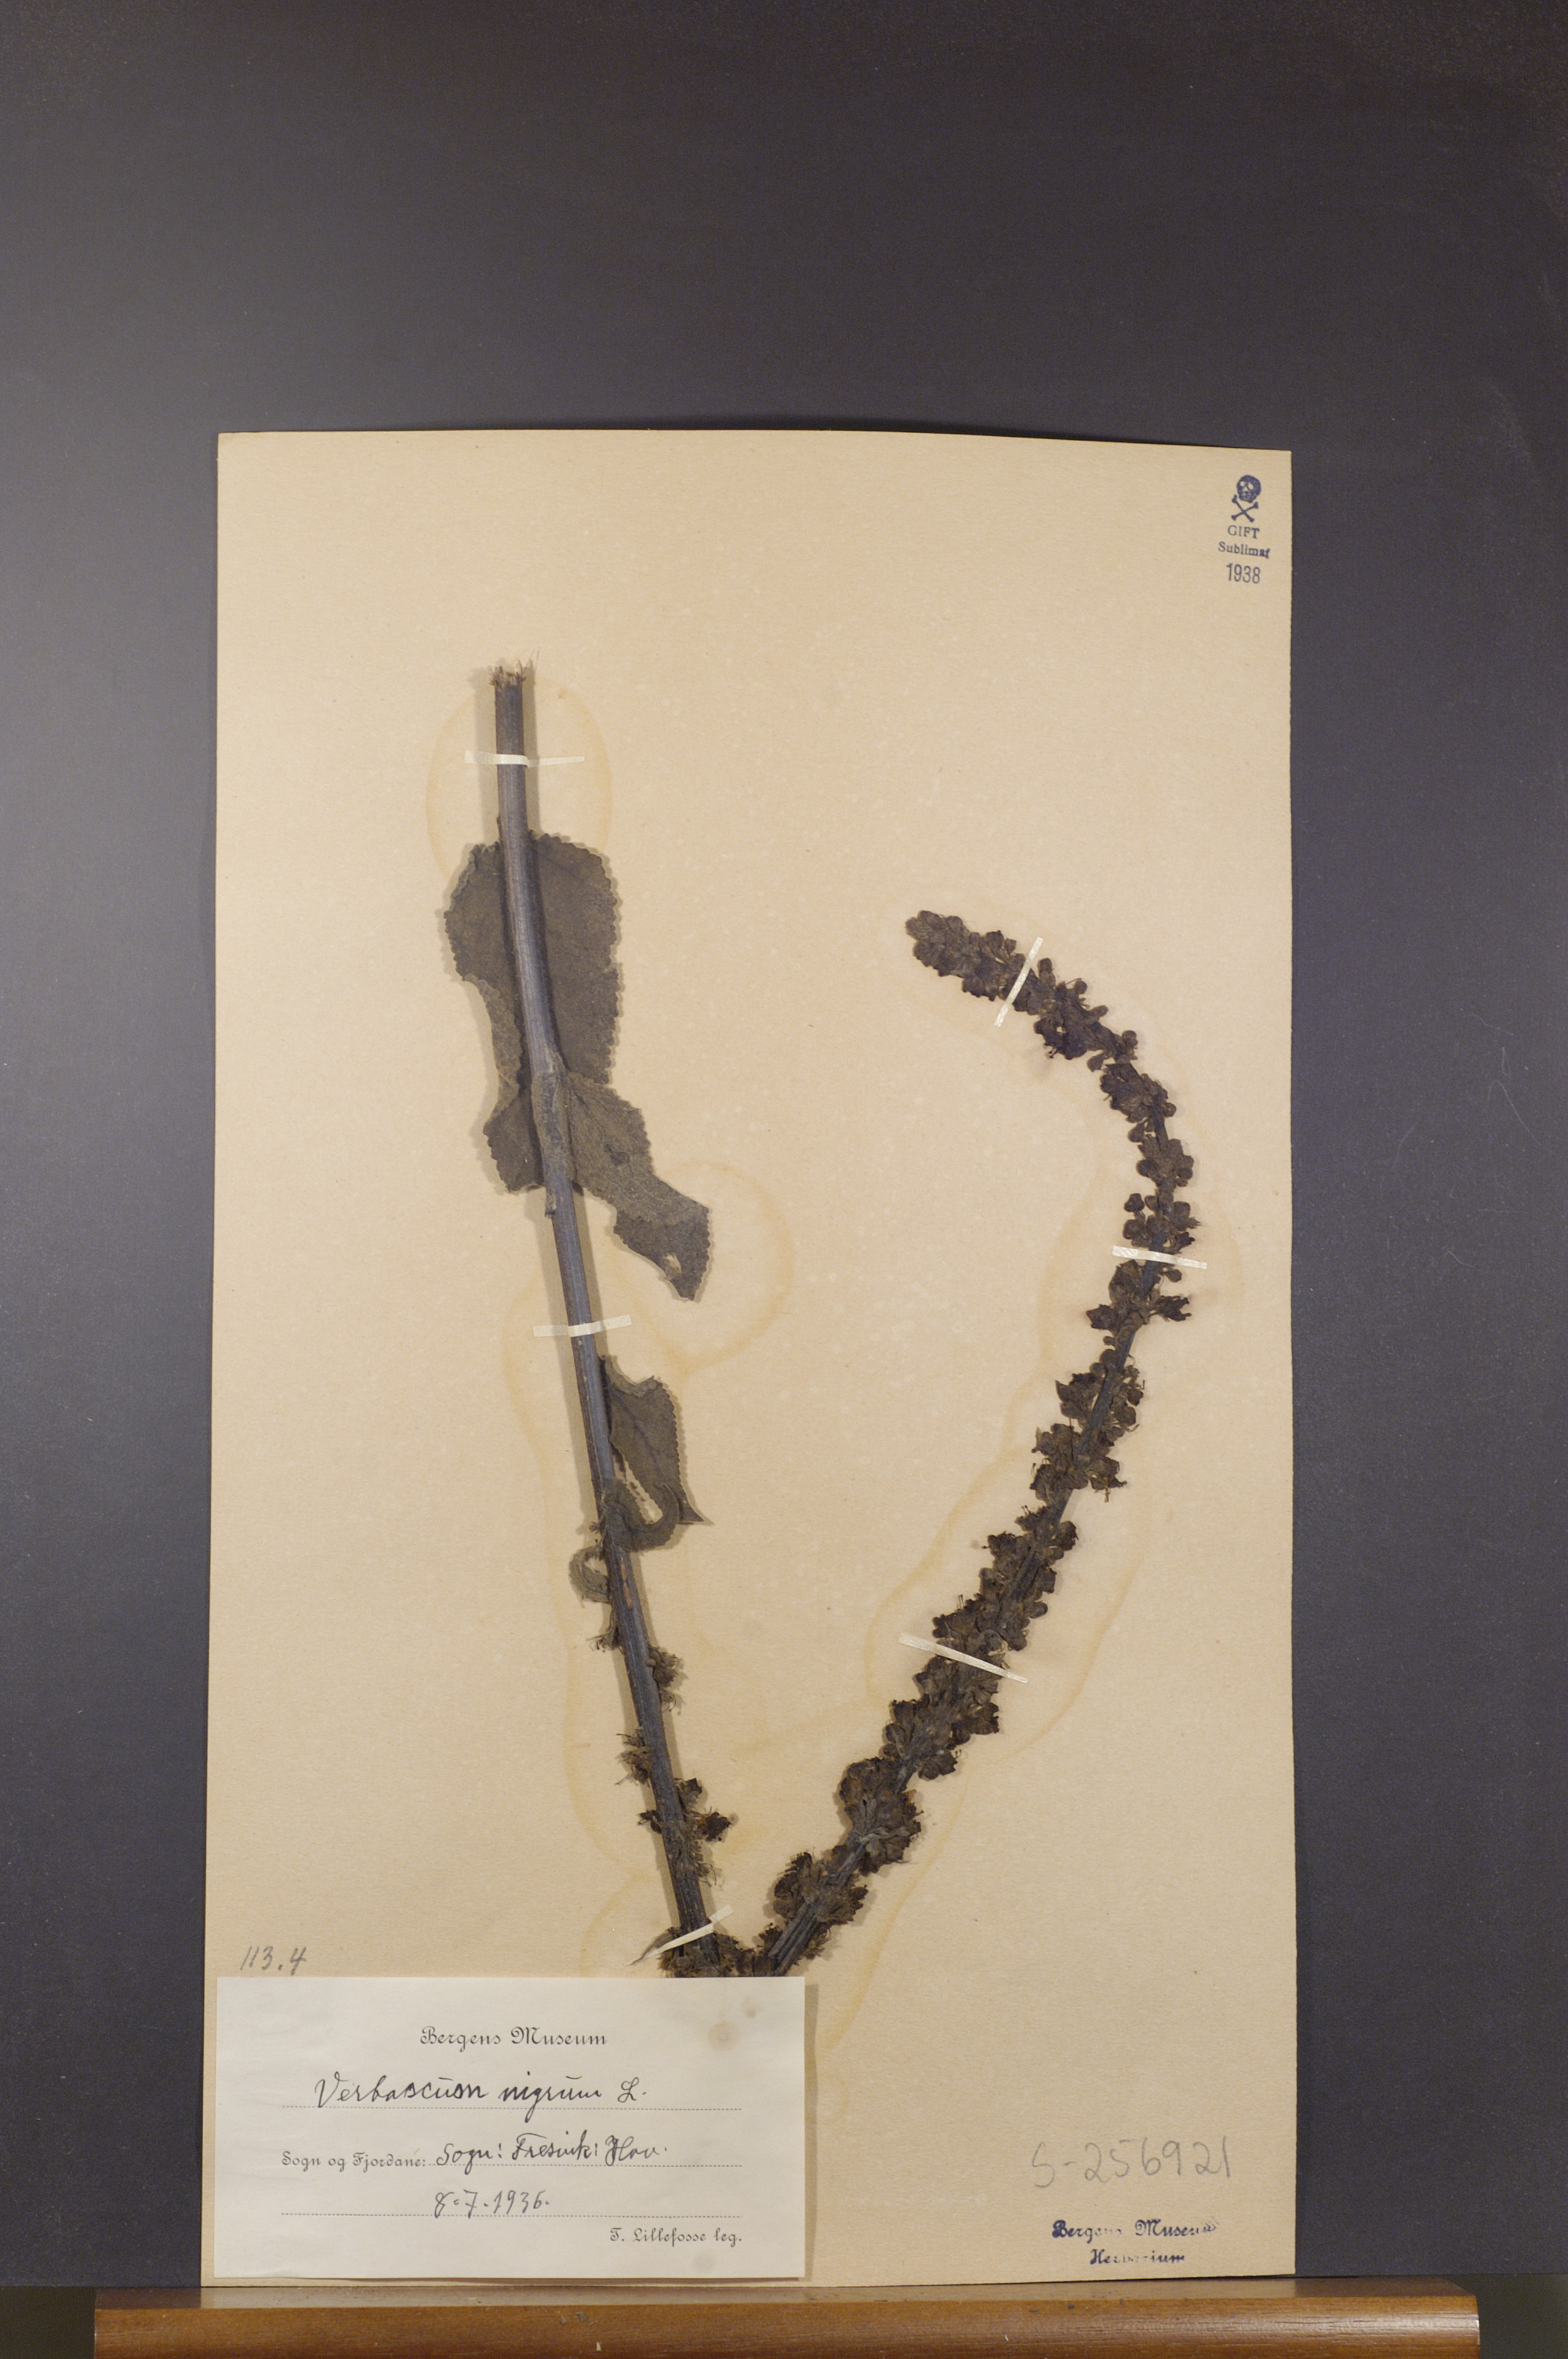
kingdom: Plantae
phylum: Tracheophyta
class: Magnoliopsida
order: Lamiales
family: Scrophulariaceae
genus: Verbascum
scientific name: Verbascum nigrum
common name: Dark mullein
